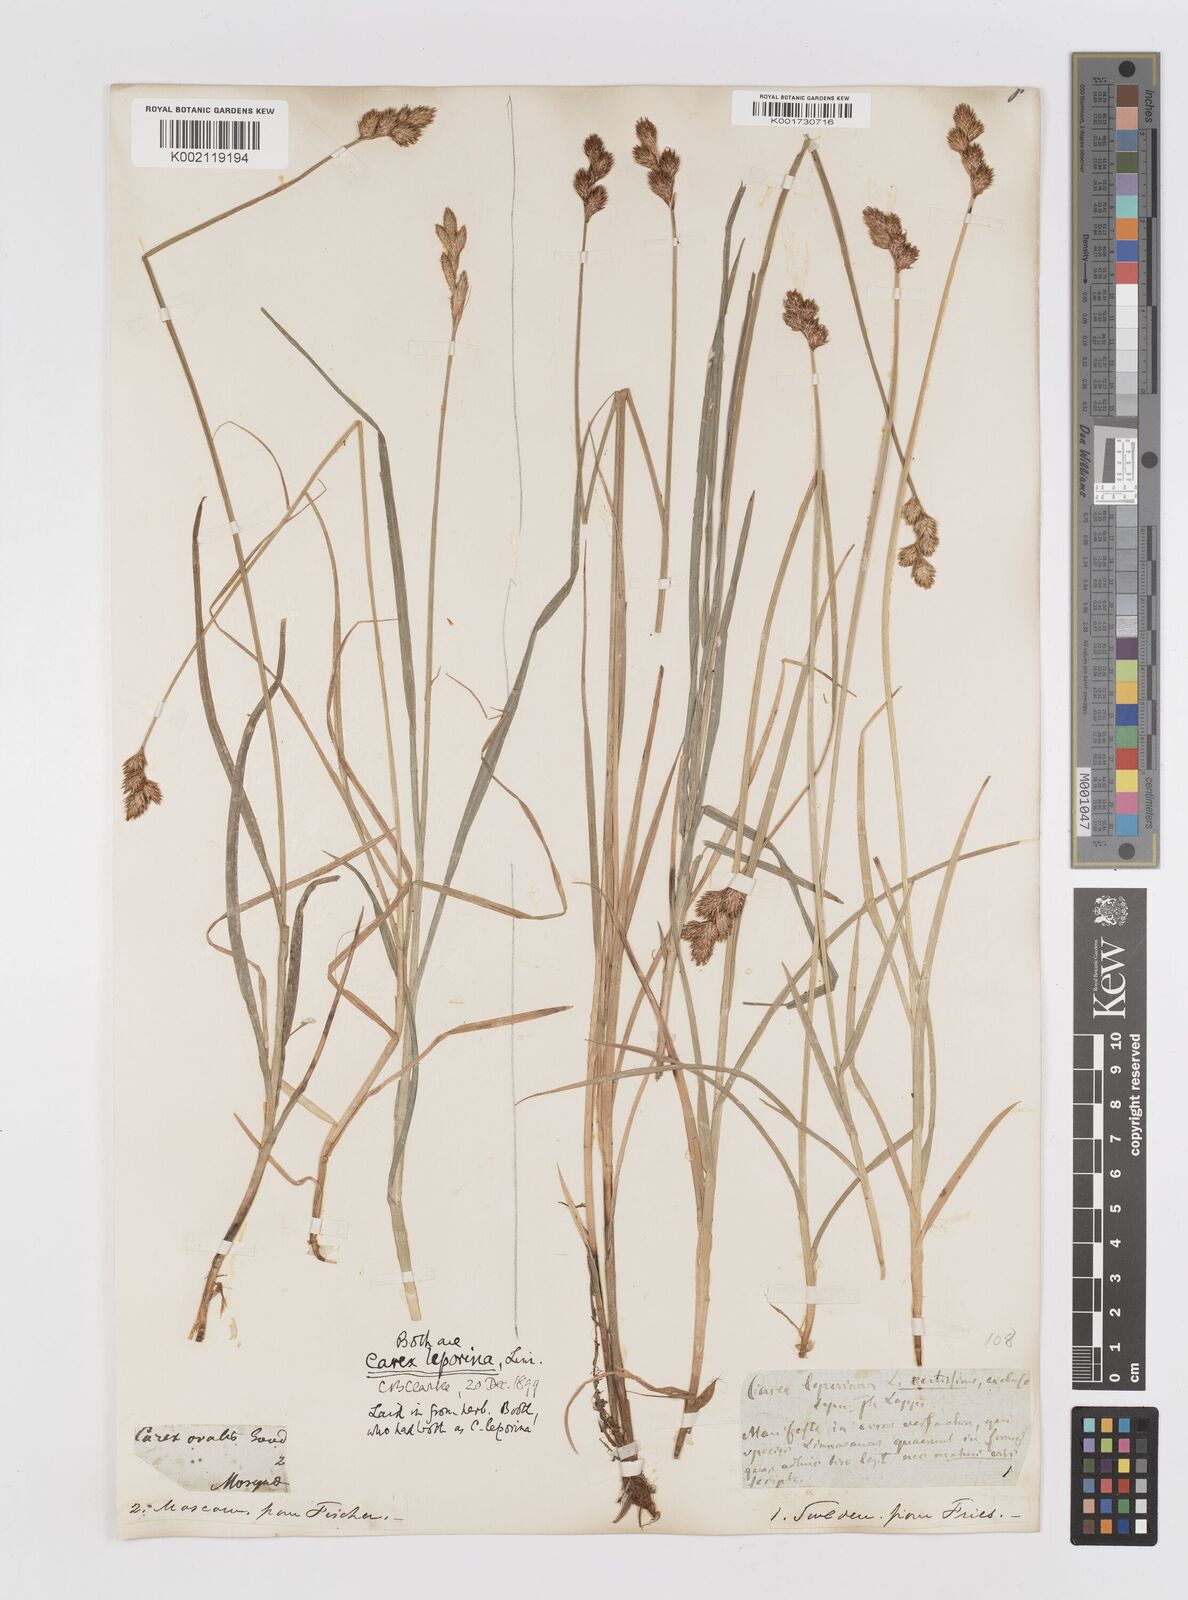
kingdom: Plantae
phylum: Tracheophyta
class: Liliopsida
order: Poales
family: Cyperaceae
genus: Carex
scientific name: Carex leporina
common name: Oval sedge
